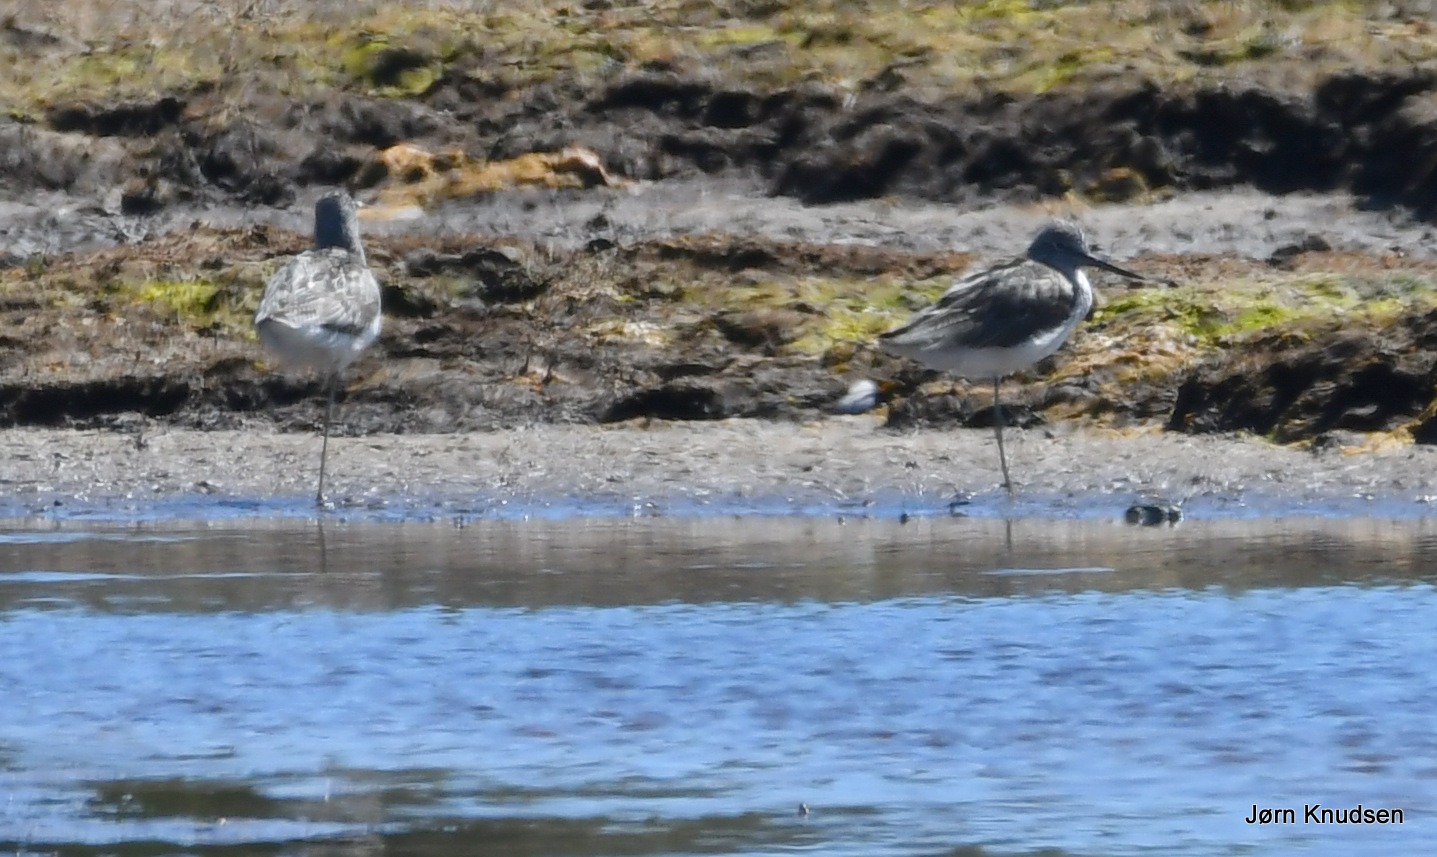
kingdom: Animalia
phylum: Chordata
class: Aves
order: Charadriiformes
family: Scolopacidae
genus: Tringa
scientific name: Tringa nebularia
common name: Hvidklire
